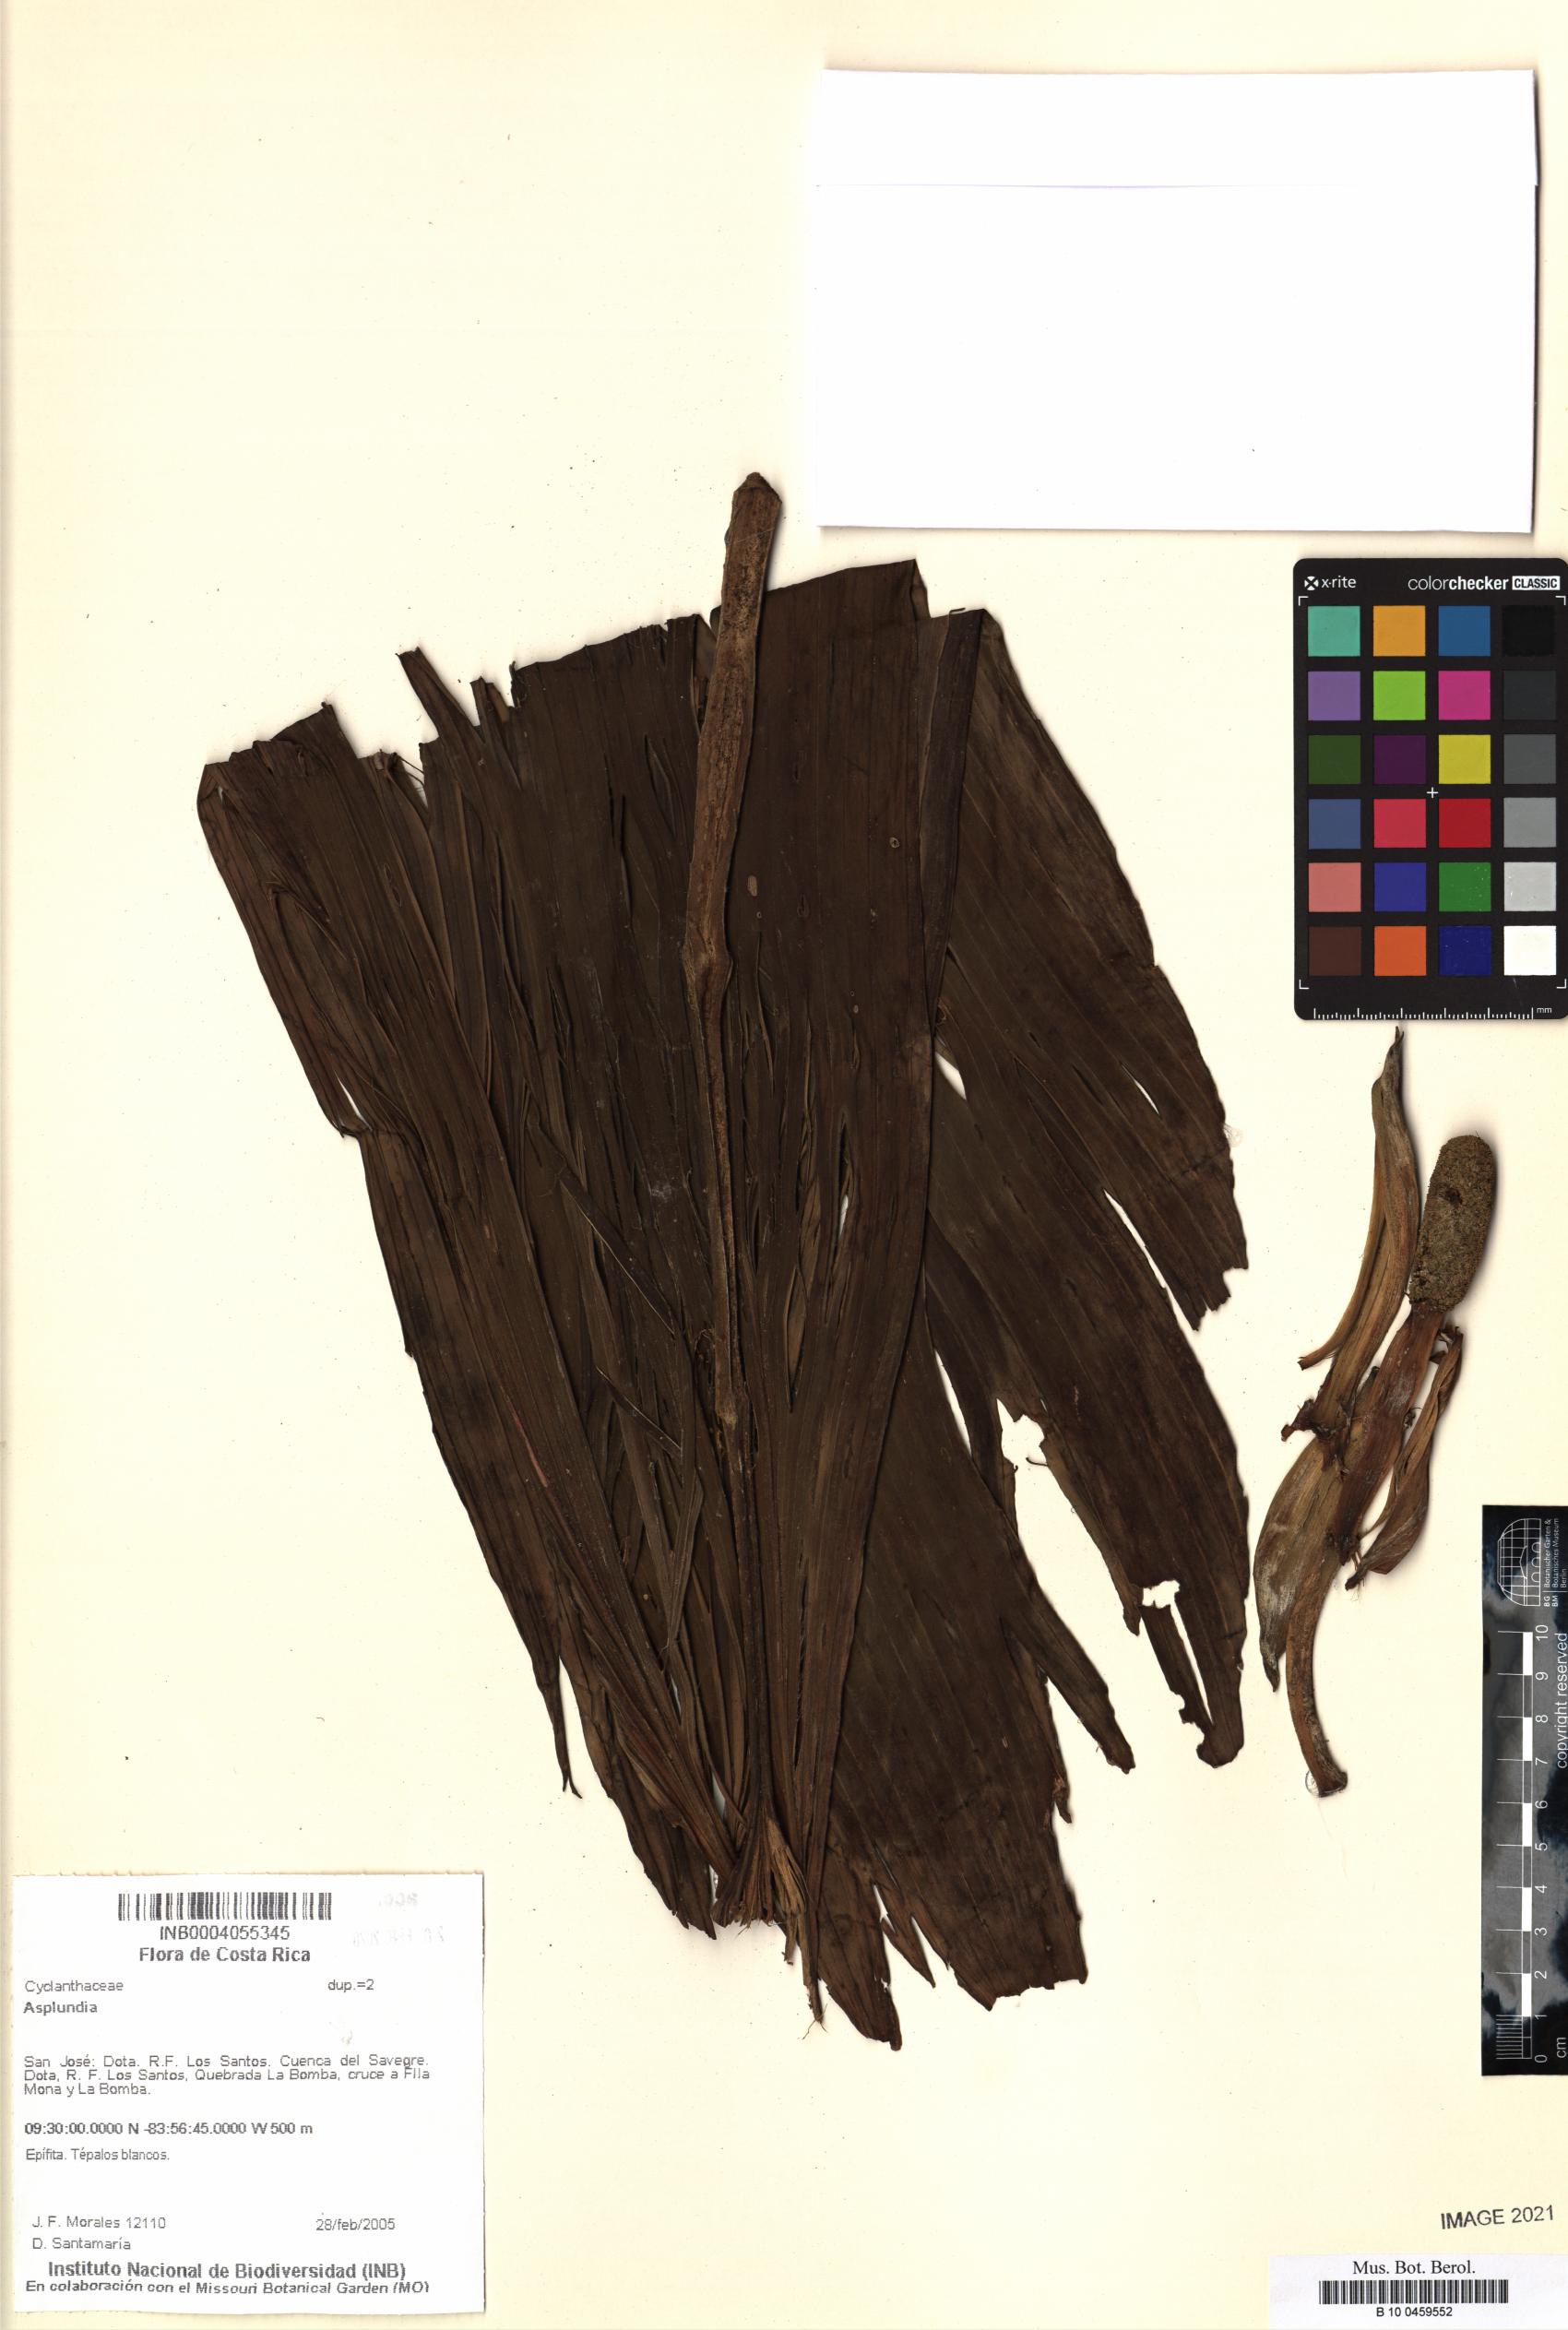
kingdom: Plantae
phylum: Tracheophyta
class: Liliopsida
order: Pandanales
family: Cyclanthaceae
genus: Asplundia
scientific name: Asplundia
